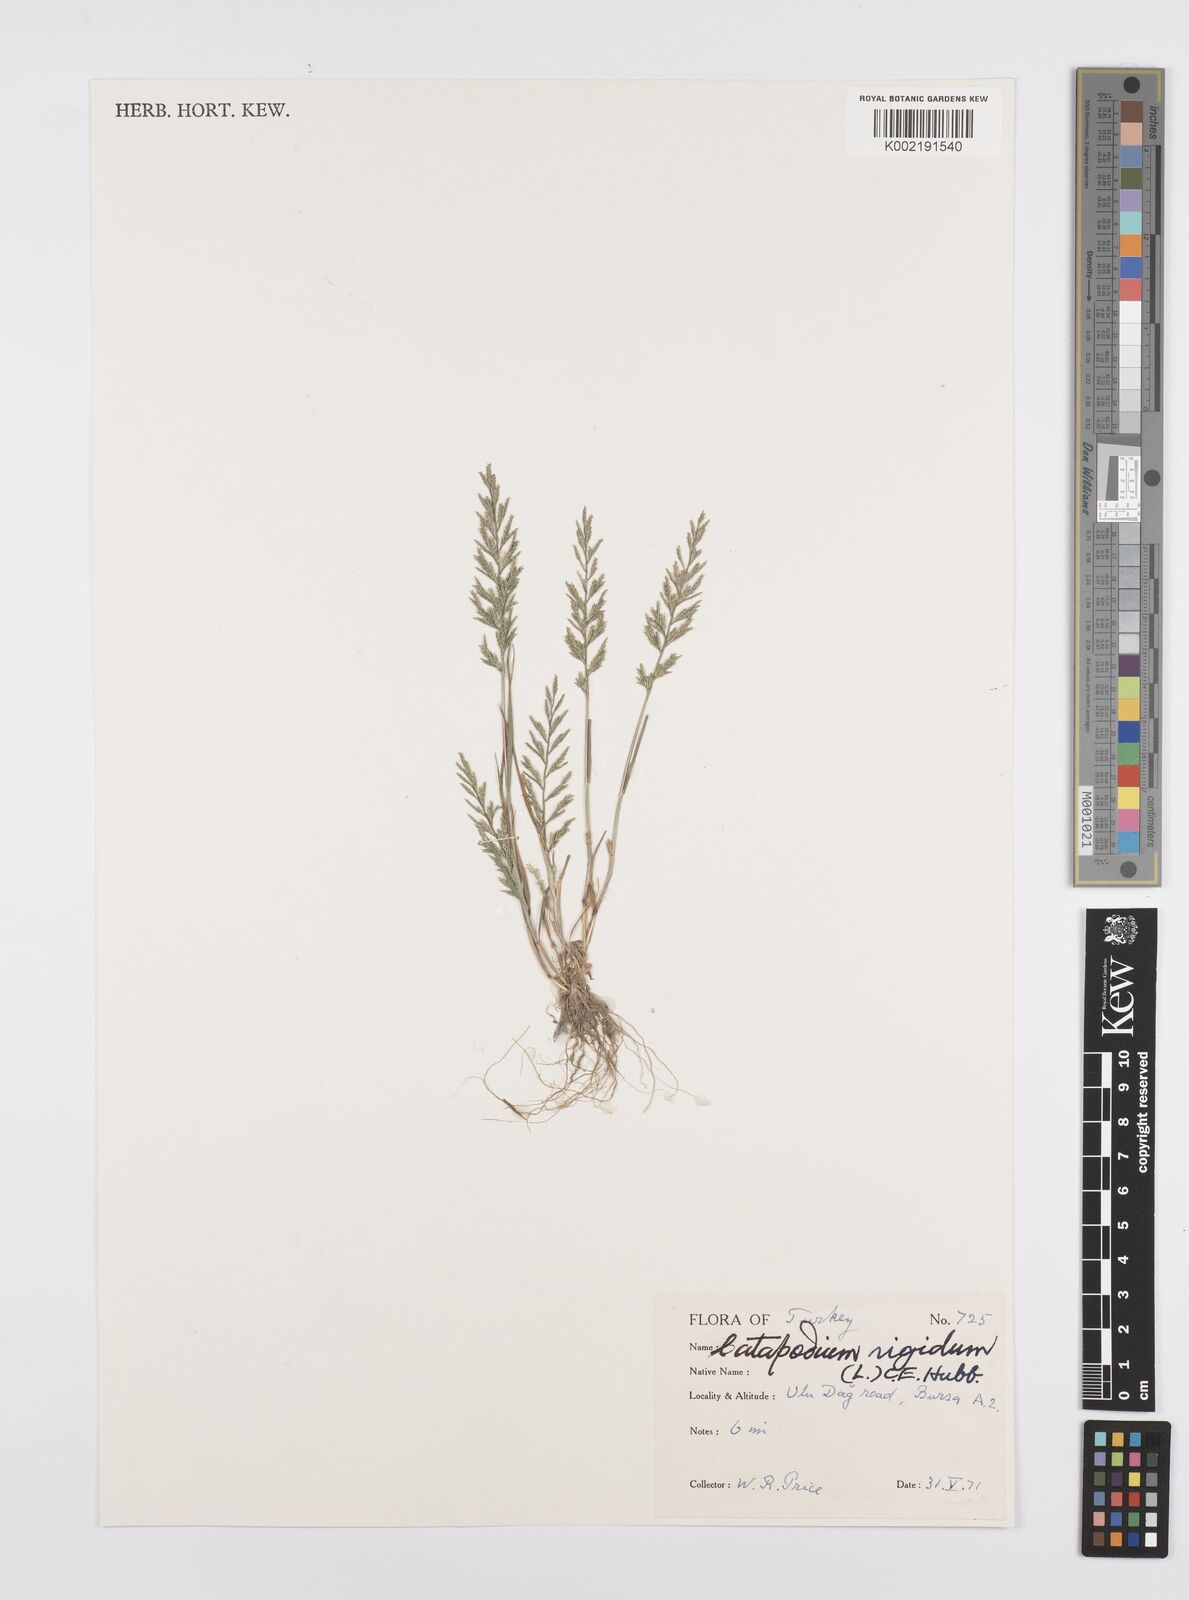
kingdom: Plantae
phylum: Tracheophyta
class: Liliopsida
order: Poales
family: Poaceae
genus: Catapodium
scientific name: Catapodium rigidum
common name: Fern-grass
